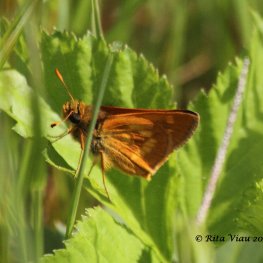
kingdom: Animalia
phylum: Arthropoda
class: Insecta
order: Lepidoptera
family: Hesperiidae
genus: Polites
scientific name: Polites
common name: Long Dash Skipper
